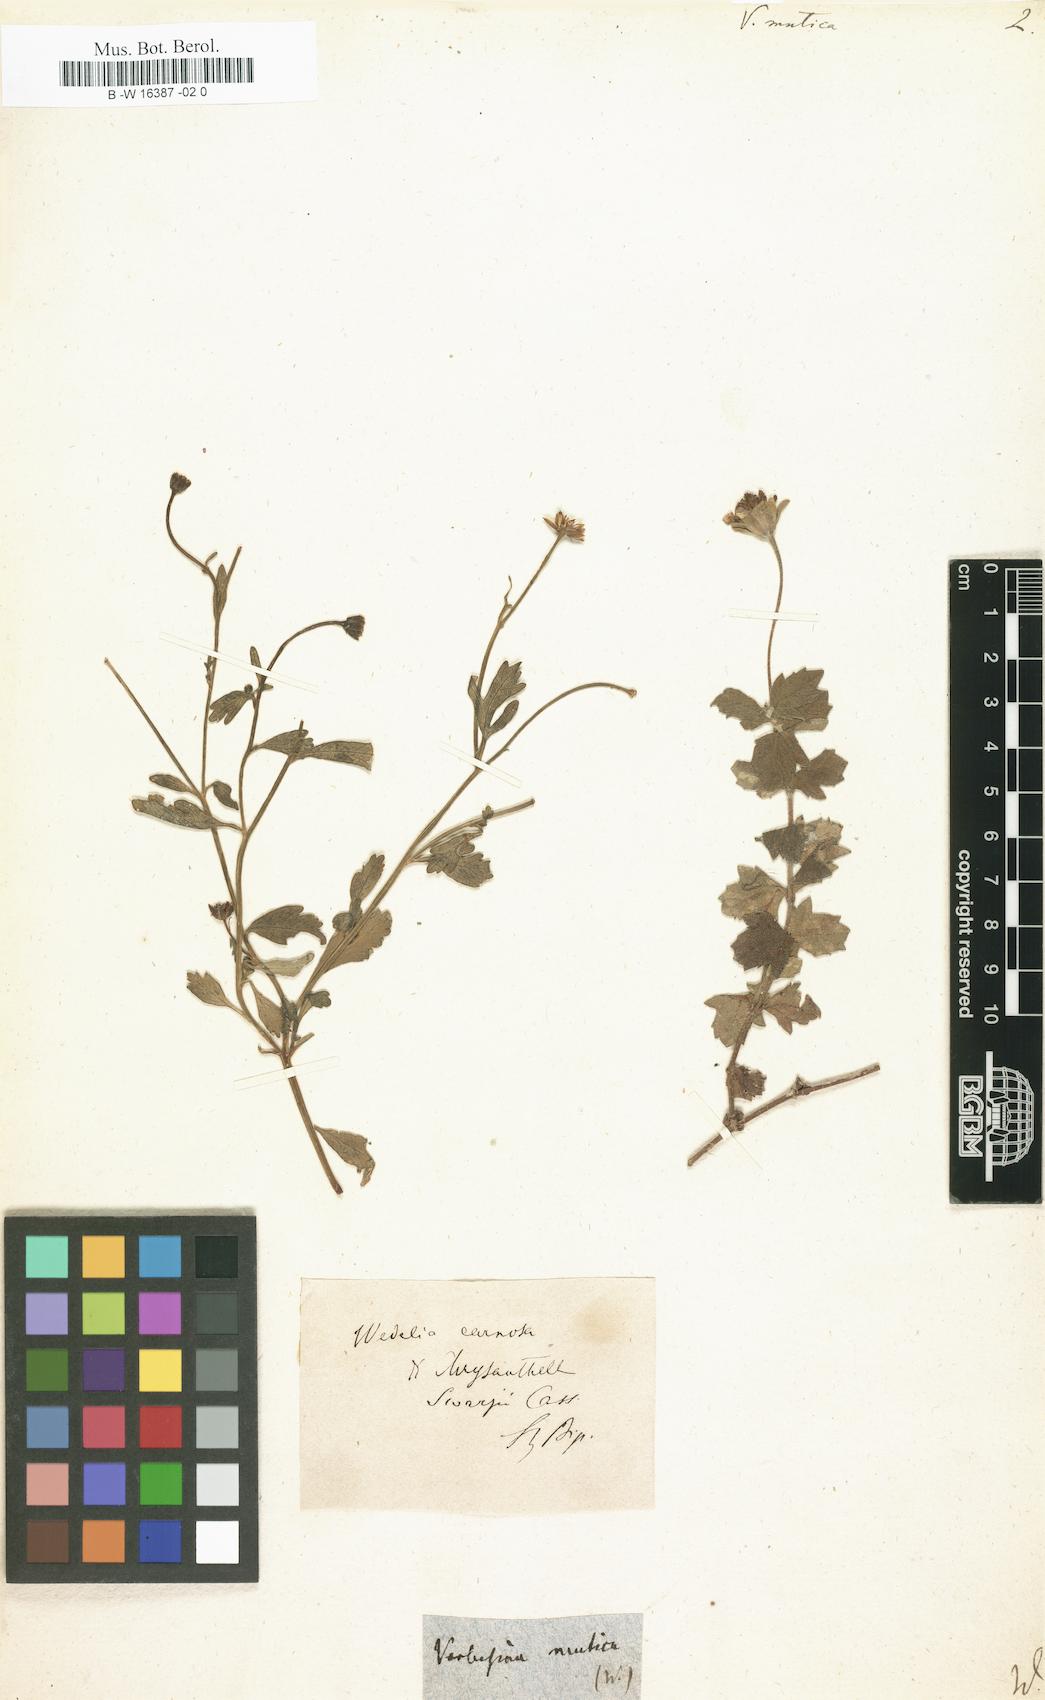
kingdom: Plantae
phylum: Tracheophyta
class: Magnoliopsida
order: Asterales
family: Asteraceae
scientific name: Asteraceae
